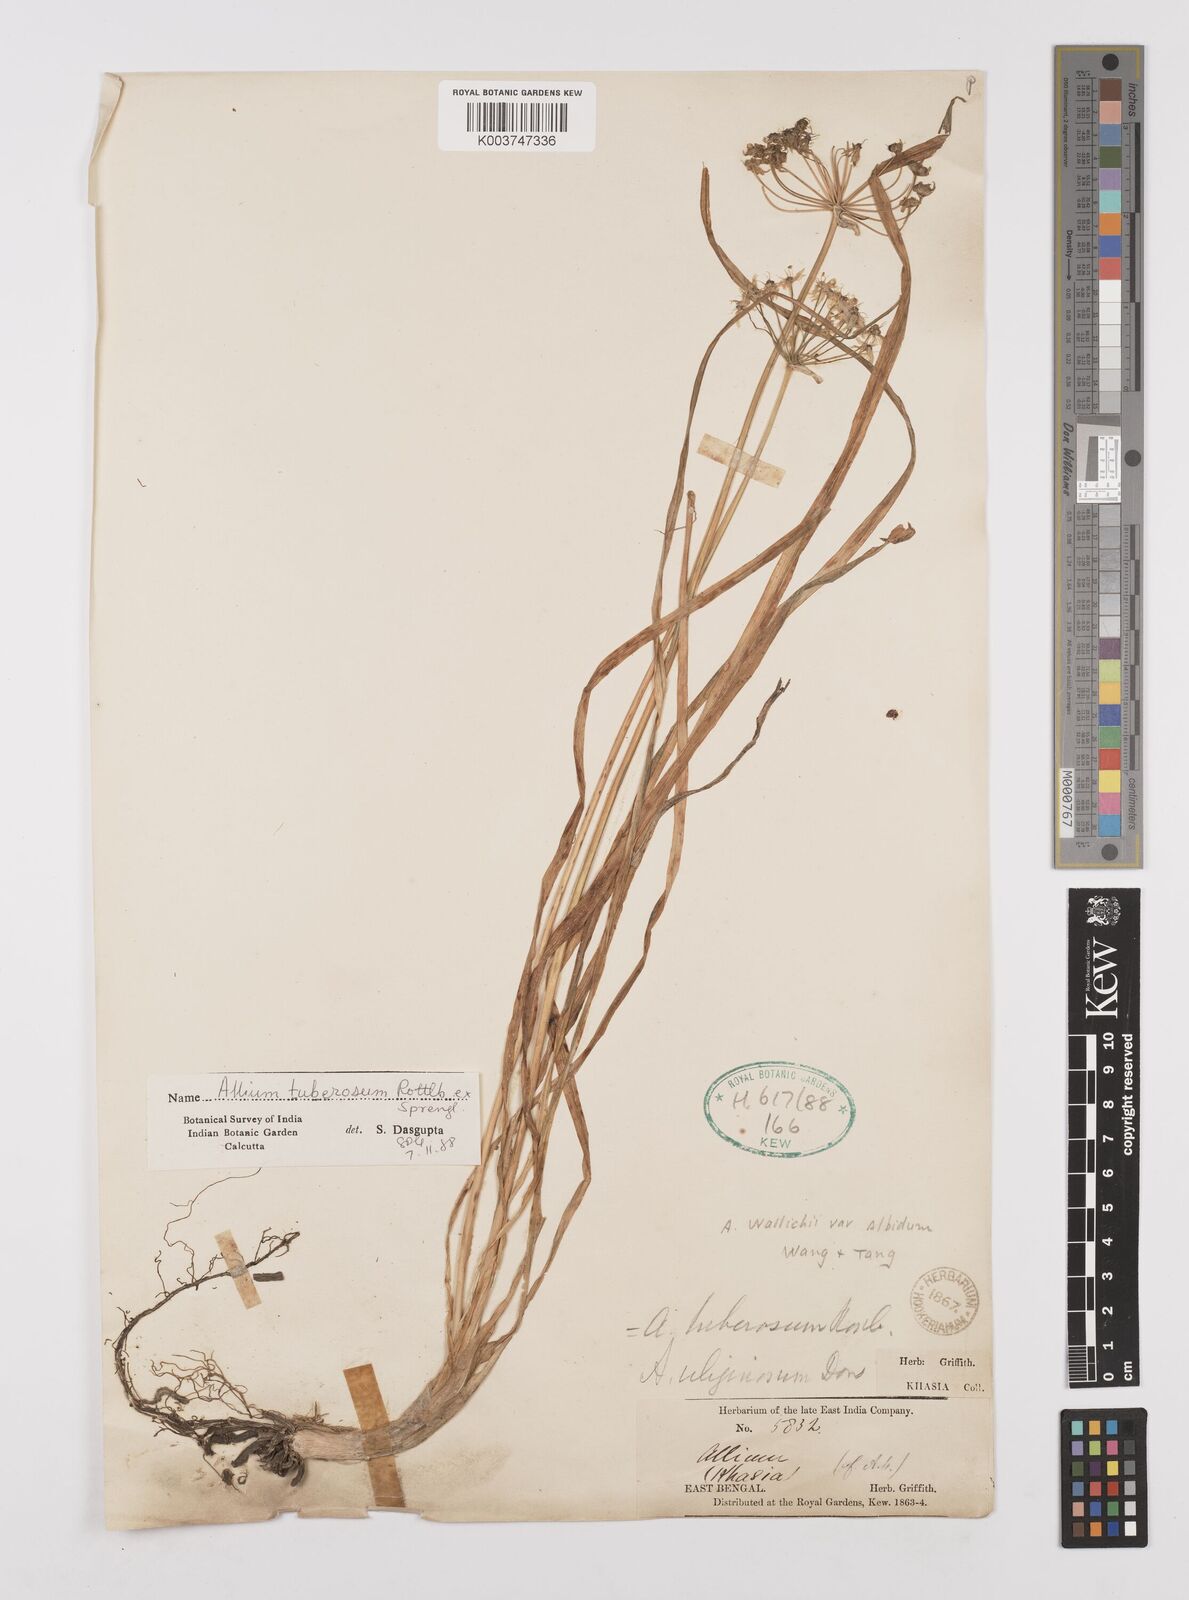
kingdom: Plantae
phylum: Tracheophyta
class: Liliopsida
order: Asparagales
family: Amaryllidaceae
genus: Allium
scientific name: Allium tuberosum
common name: Chinese chives
